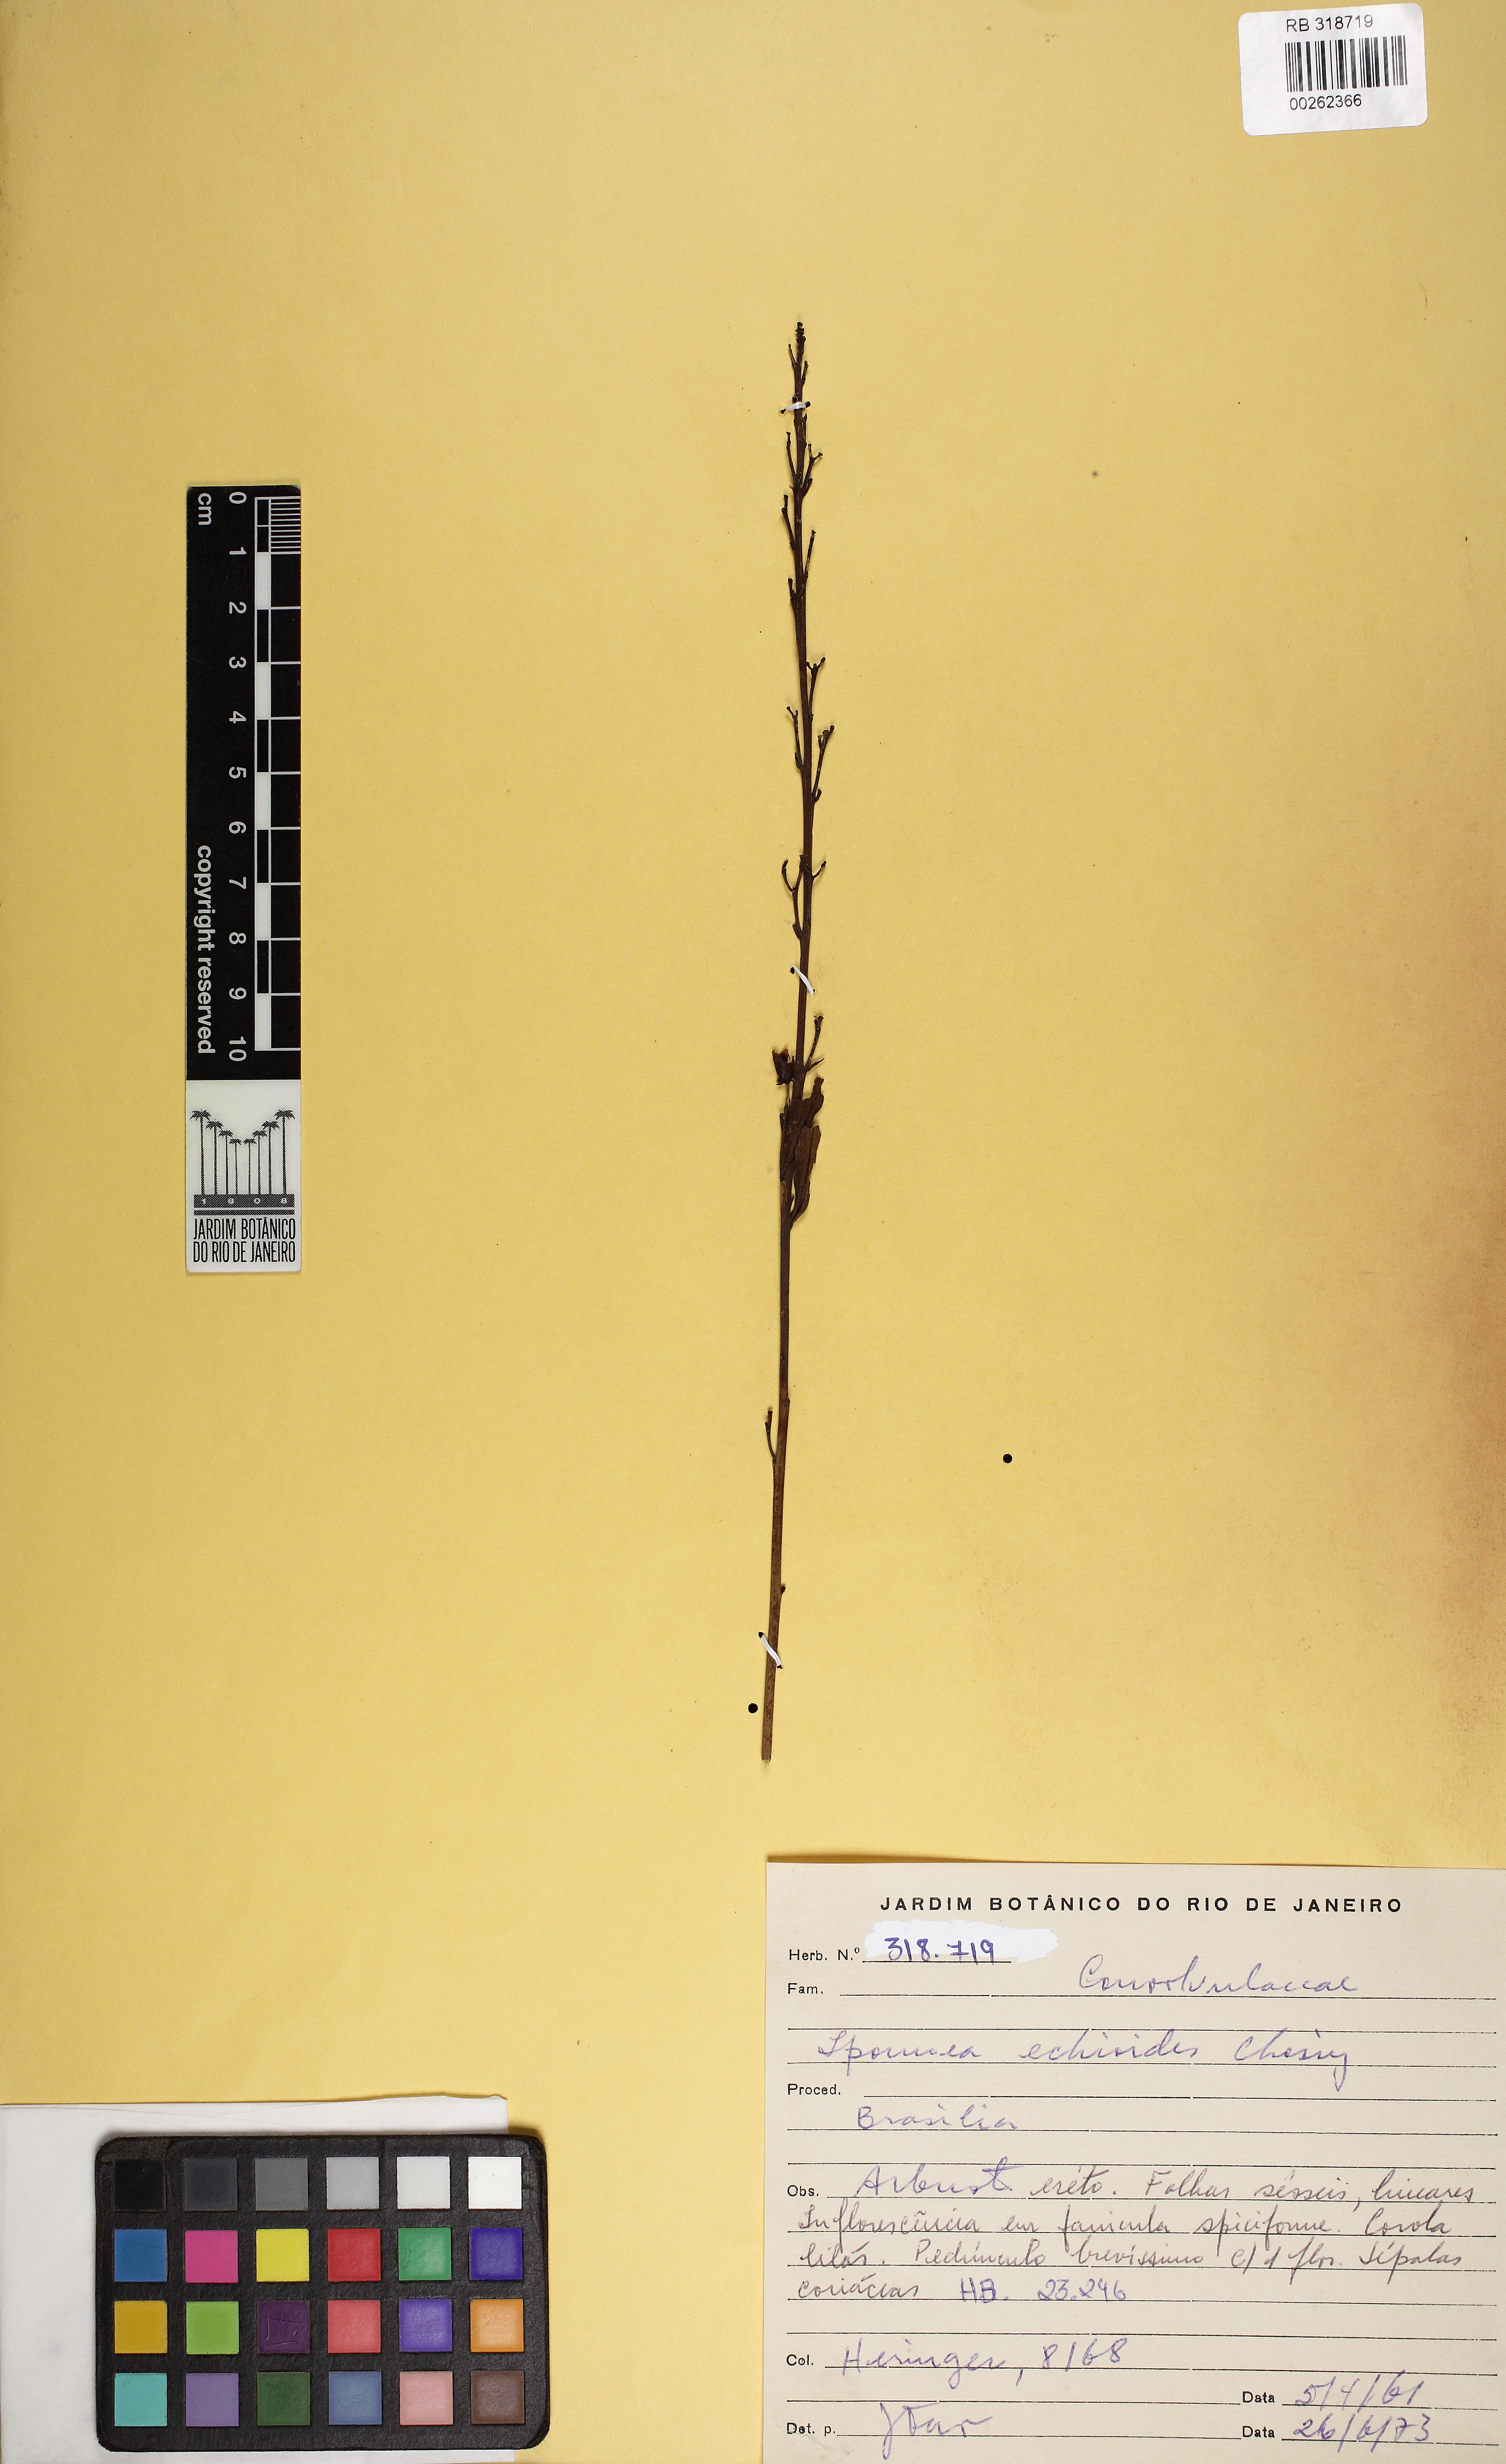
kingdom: Plantae
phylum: Tracheophyta
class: Magnoliopsida
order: Solanales
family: Convolvulaceae
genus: Ipomoea
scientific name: Ipomoea paulistana
